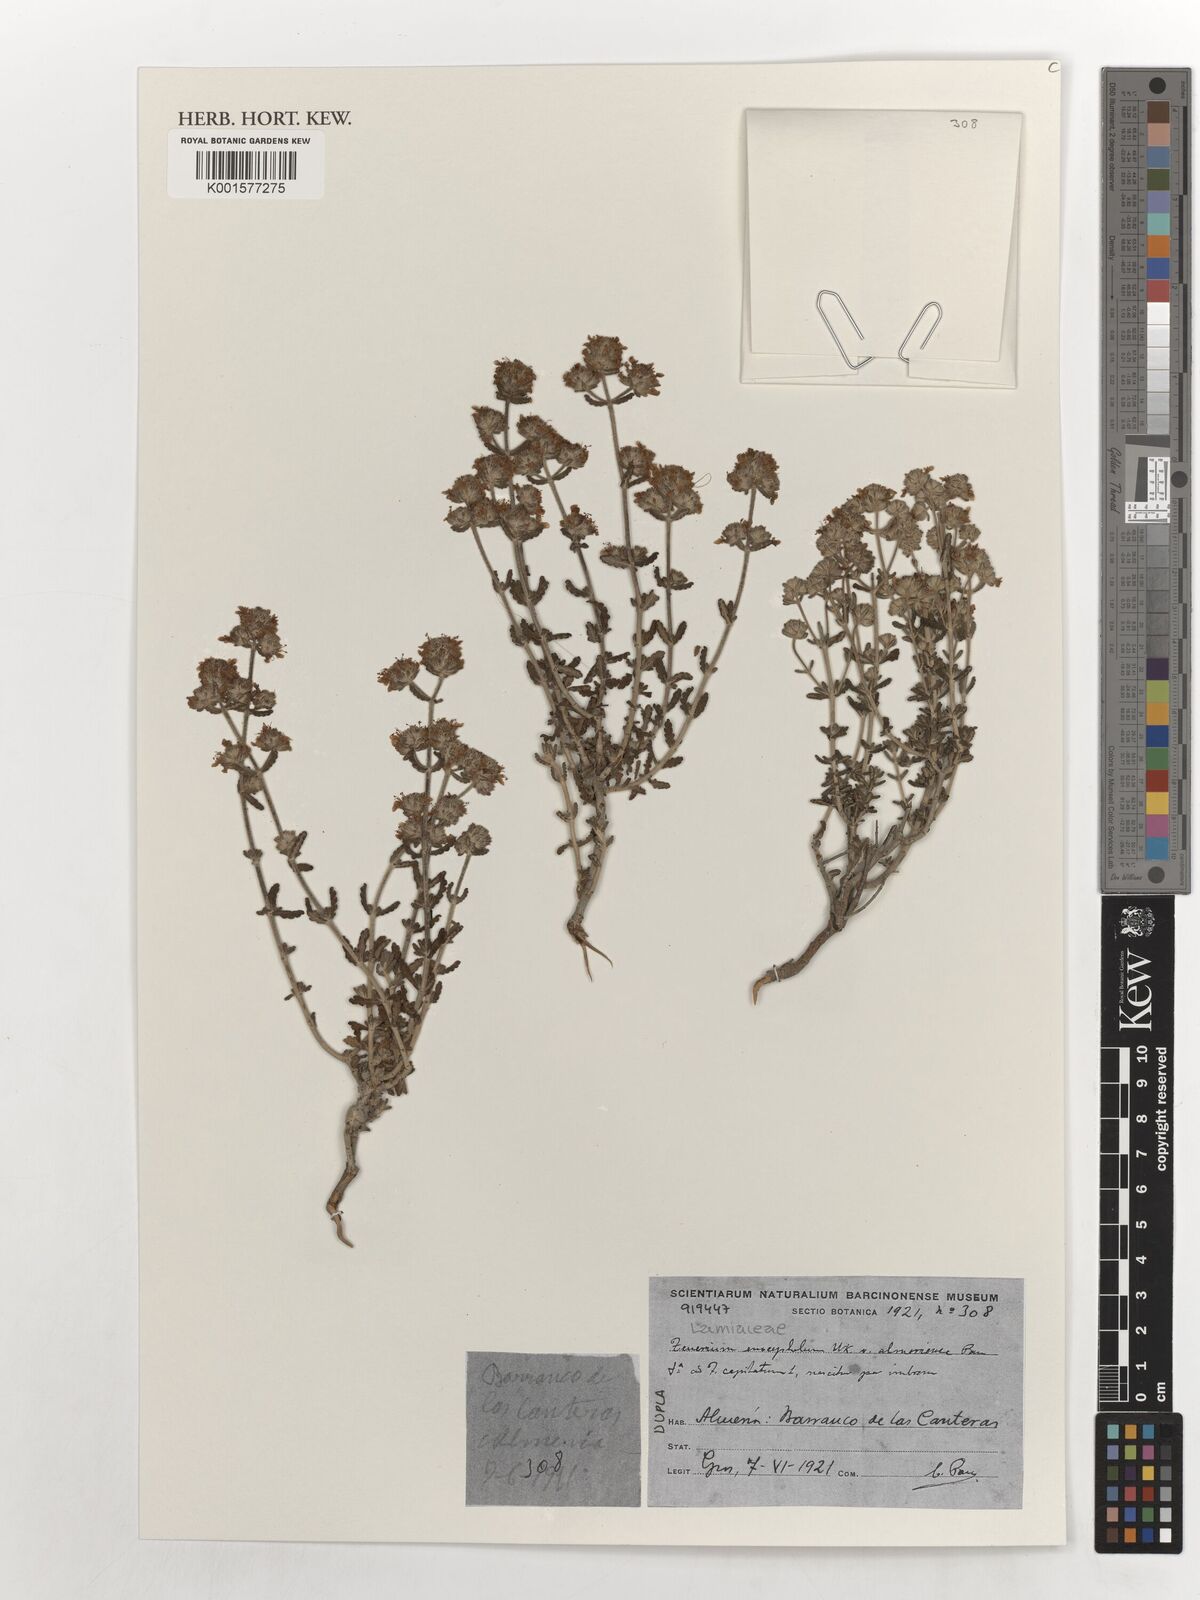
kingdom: Plantae
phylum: Tracheophyta
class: Magnoliopsida
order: Lamiales
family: Lamiaceae
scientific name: Lamiaceae
